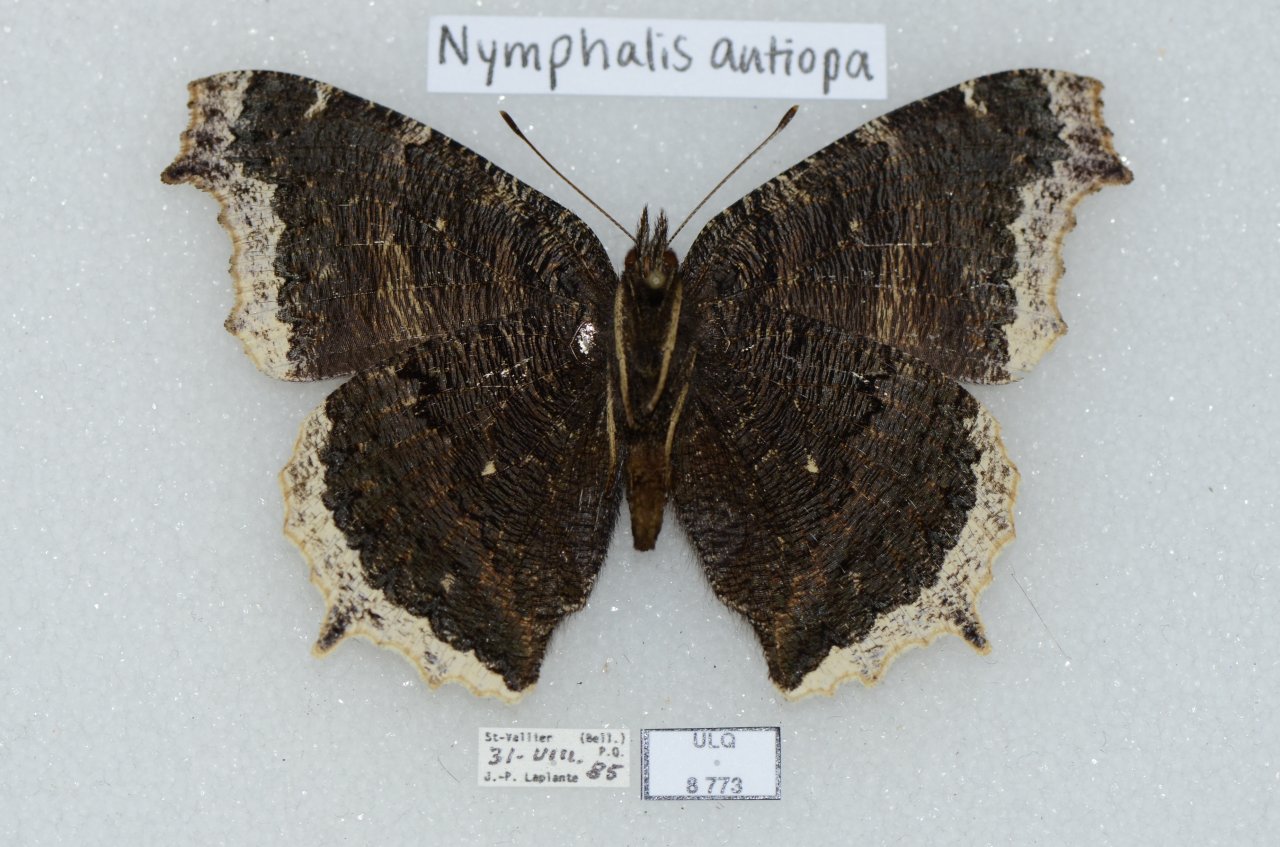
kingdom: Animalia
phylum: Arthropoda
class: Insecta
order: Lepidoptera
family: Nymphalidae
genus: Nymphalis
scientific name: Nymphalis antiopa
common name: Mourning Cloak
